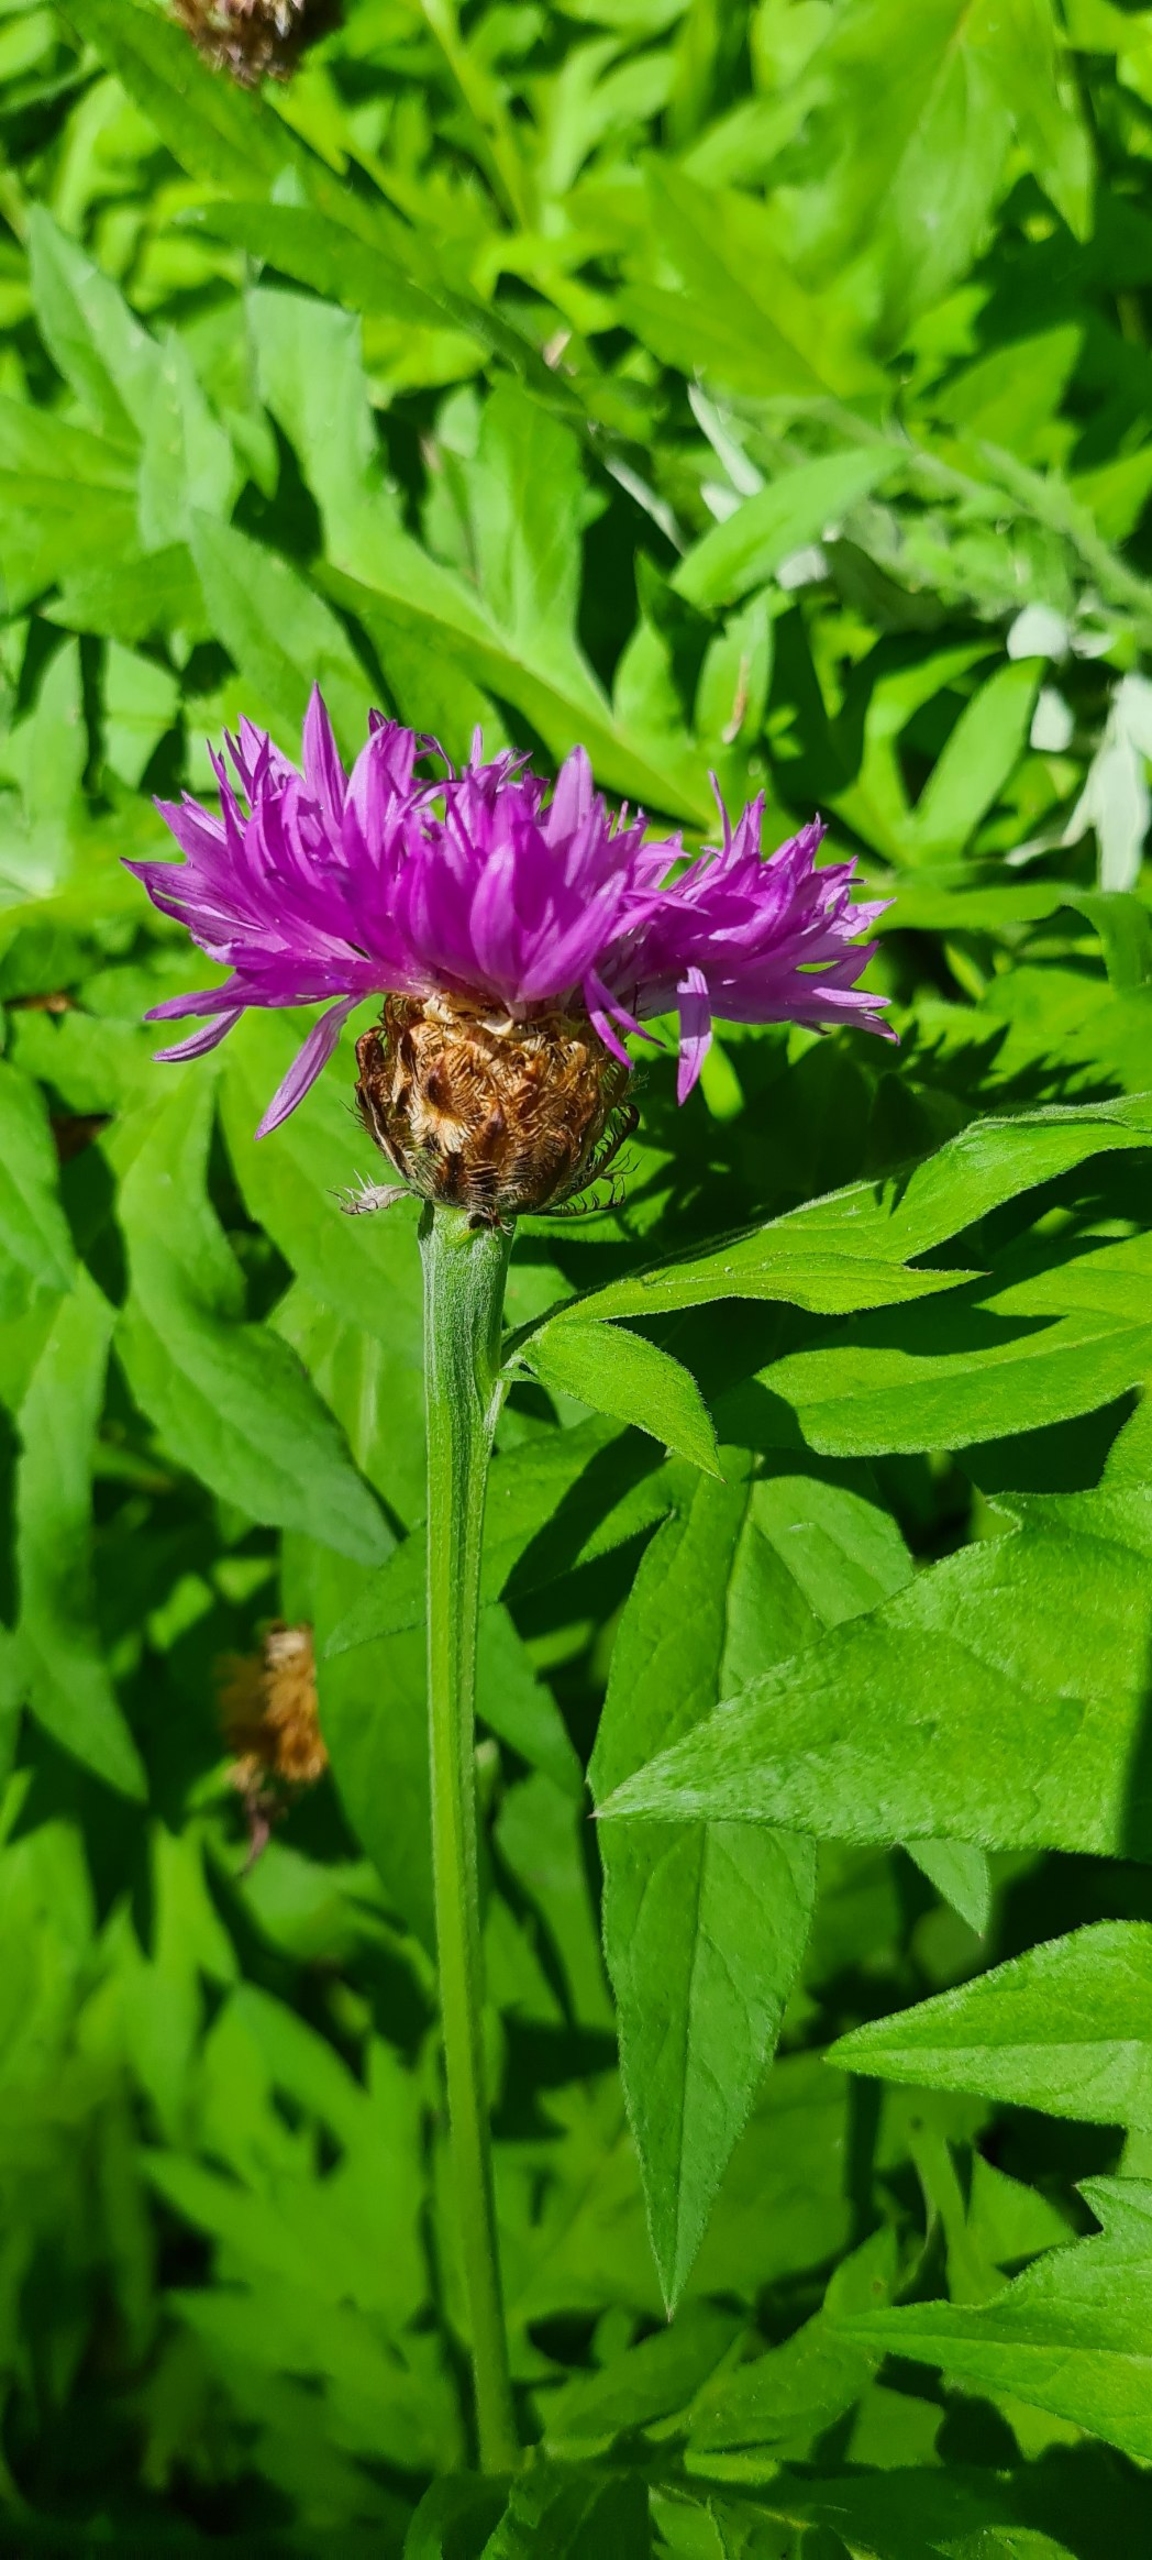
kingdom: Plantae
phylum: Tracheophyta
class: Magnoliopsida
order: Asterales
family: Asteraceae
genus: Psephellus
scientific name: Psephellus dealbatus
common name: Have-knopurt
